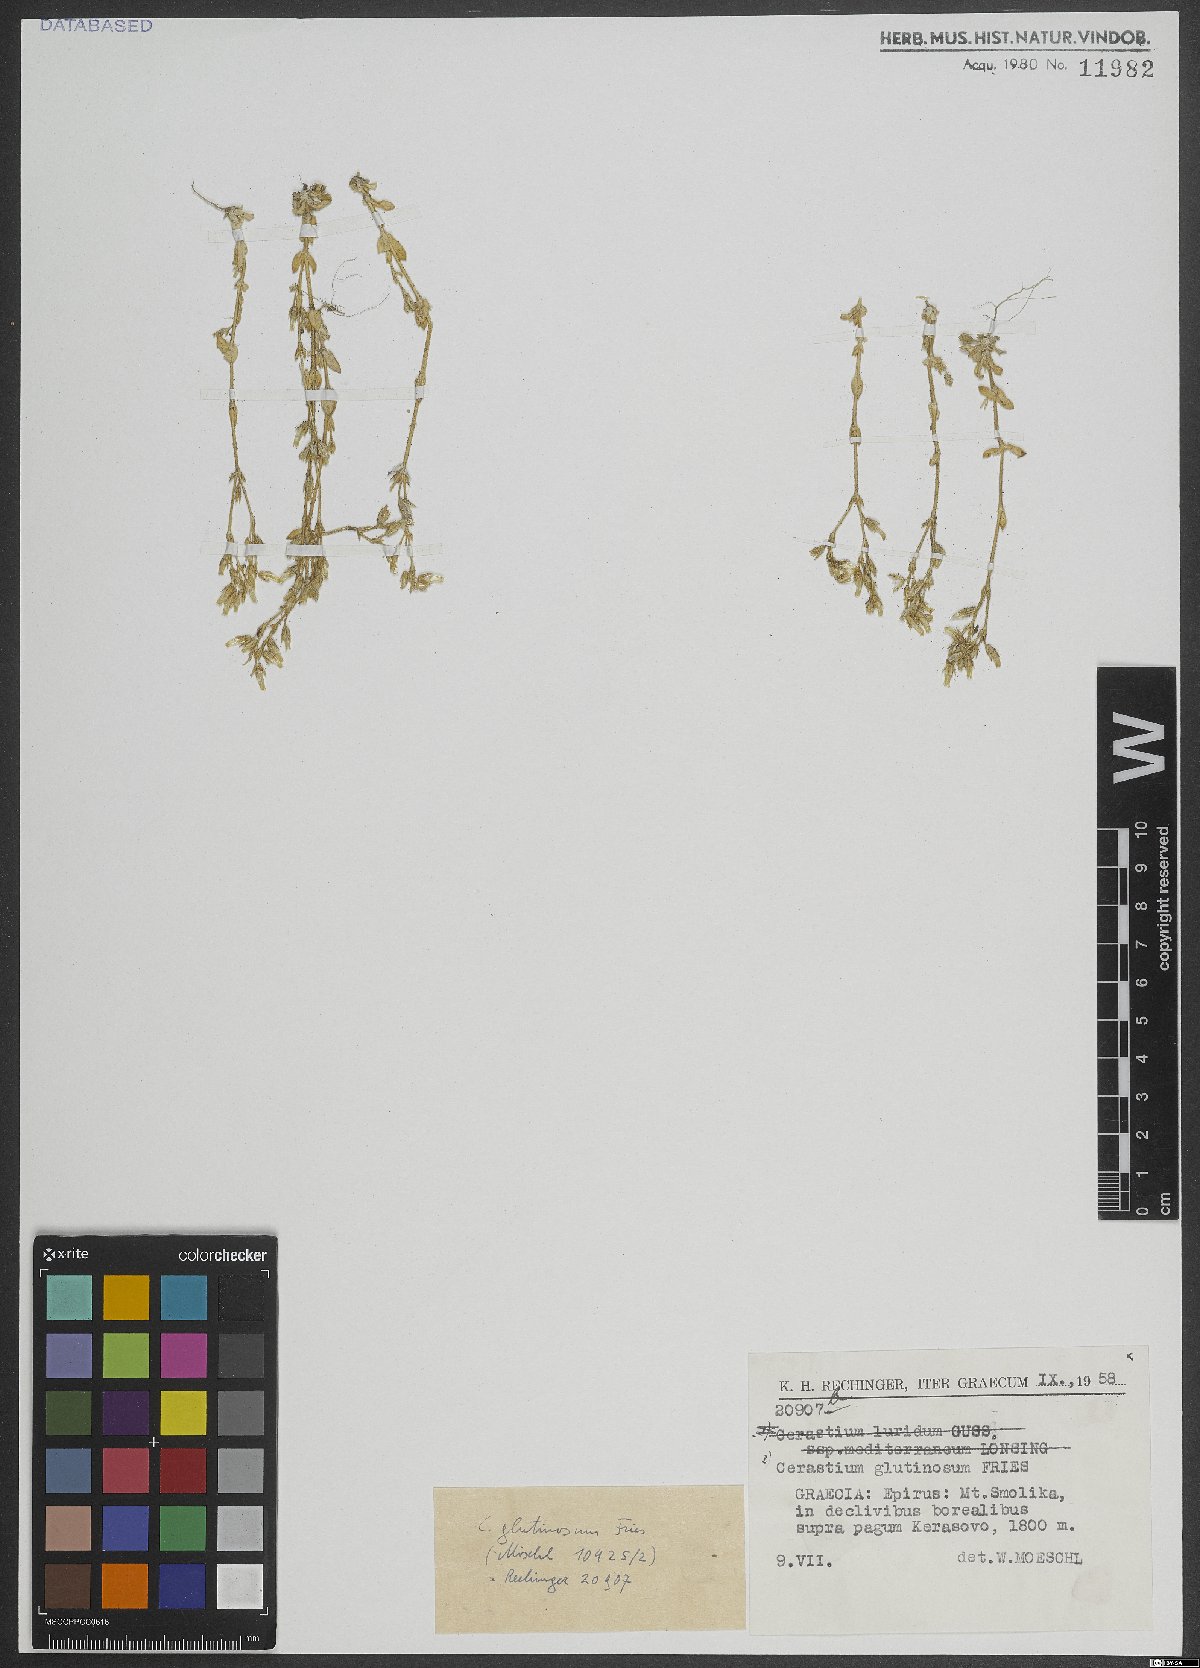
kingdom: Plantae
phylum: Tracheophyta
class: Magnoliopsida
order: Caryophyllales
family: Caryophyllaceae
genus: Cerastium
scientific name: Cerastium glutinosum
